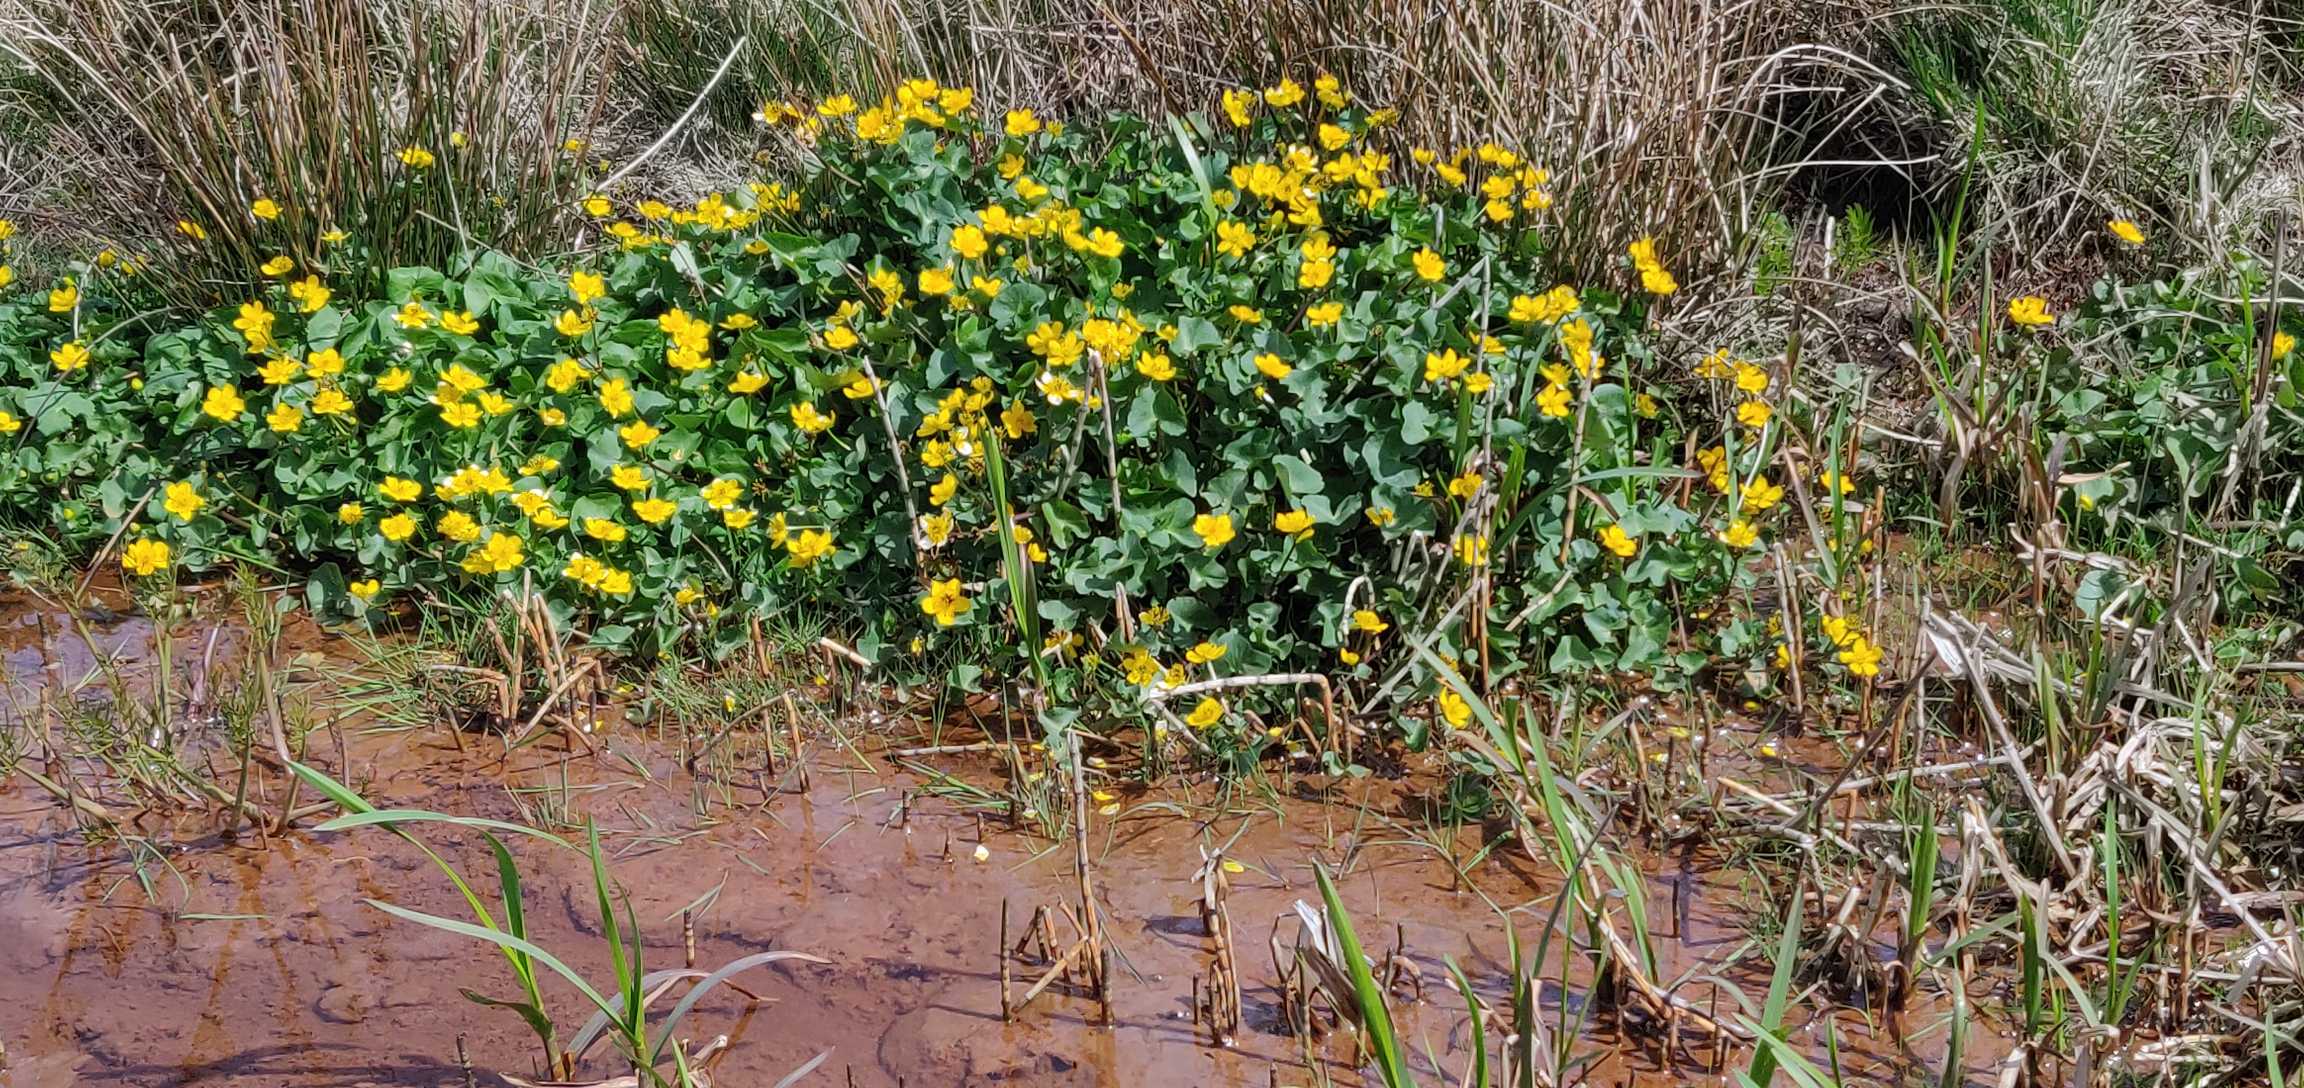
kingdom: Plantae
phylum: Tracheophyta
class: Magnoliopsida
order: Ranunculales
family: Ranunculaceae
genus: Caltha
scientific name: Caltha palustris
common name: Eng-kabbeleje
